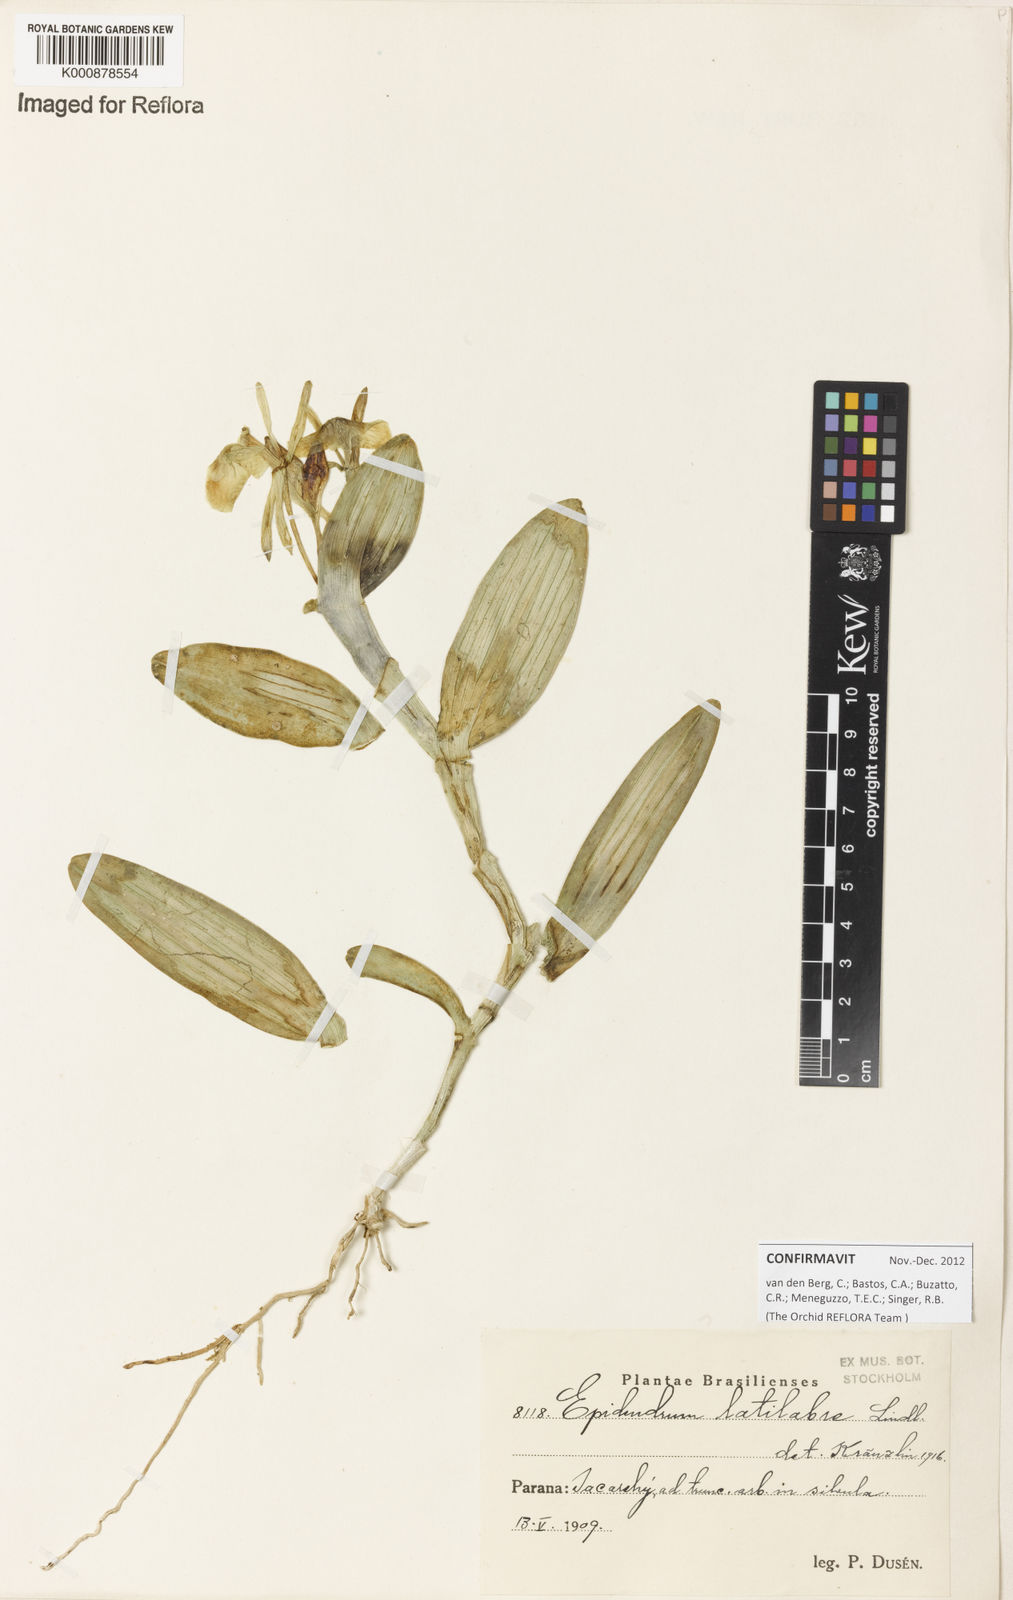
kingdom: Plantae
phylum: Tracheophyta
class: Liliopsida
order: Asparagales
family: Orchidaceae
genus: Epidendrum
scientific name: Epidendrum latilabre
